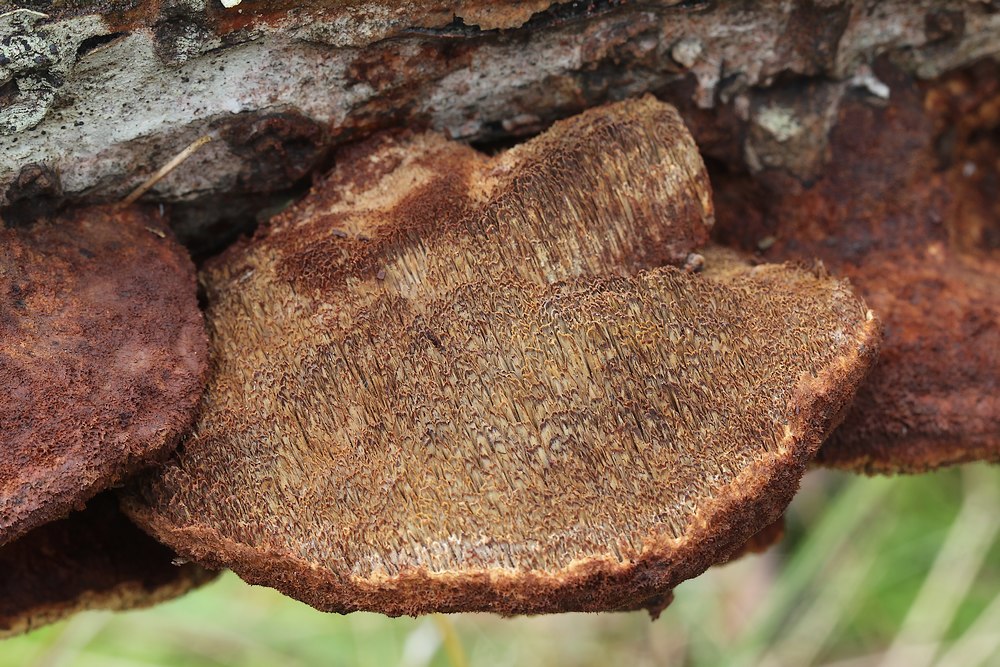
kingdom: Fungi
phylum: Basidiomycota
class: Agaricomycetes
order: Hymenochaetales
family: Hymenochaetaceae
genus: Inocutis
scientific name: Inocutis rheades
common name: ræve-spejlporesvamp
